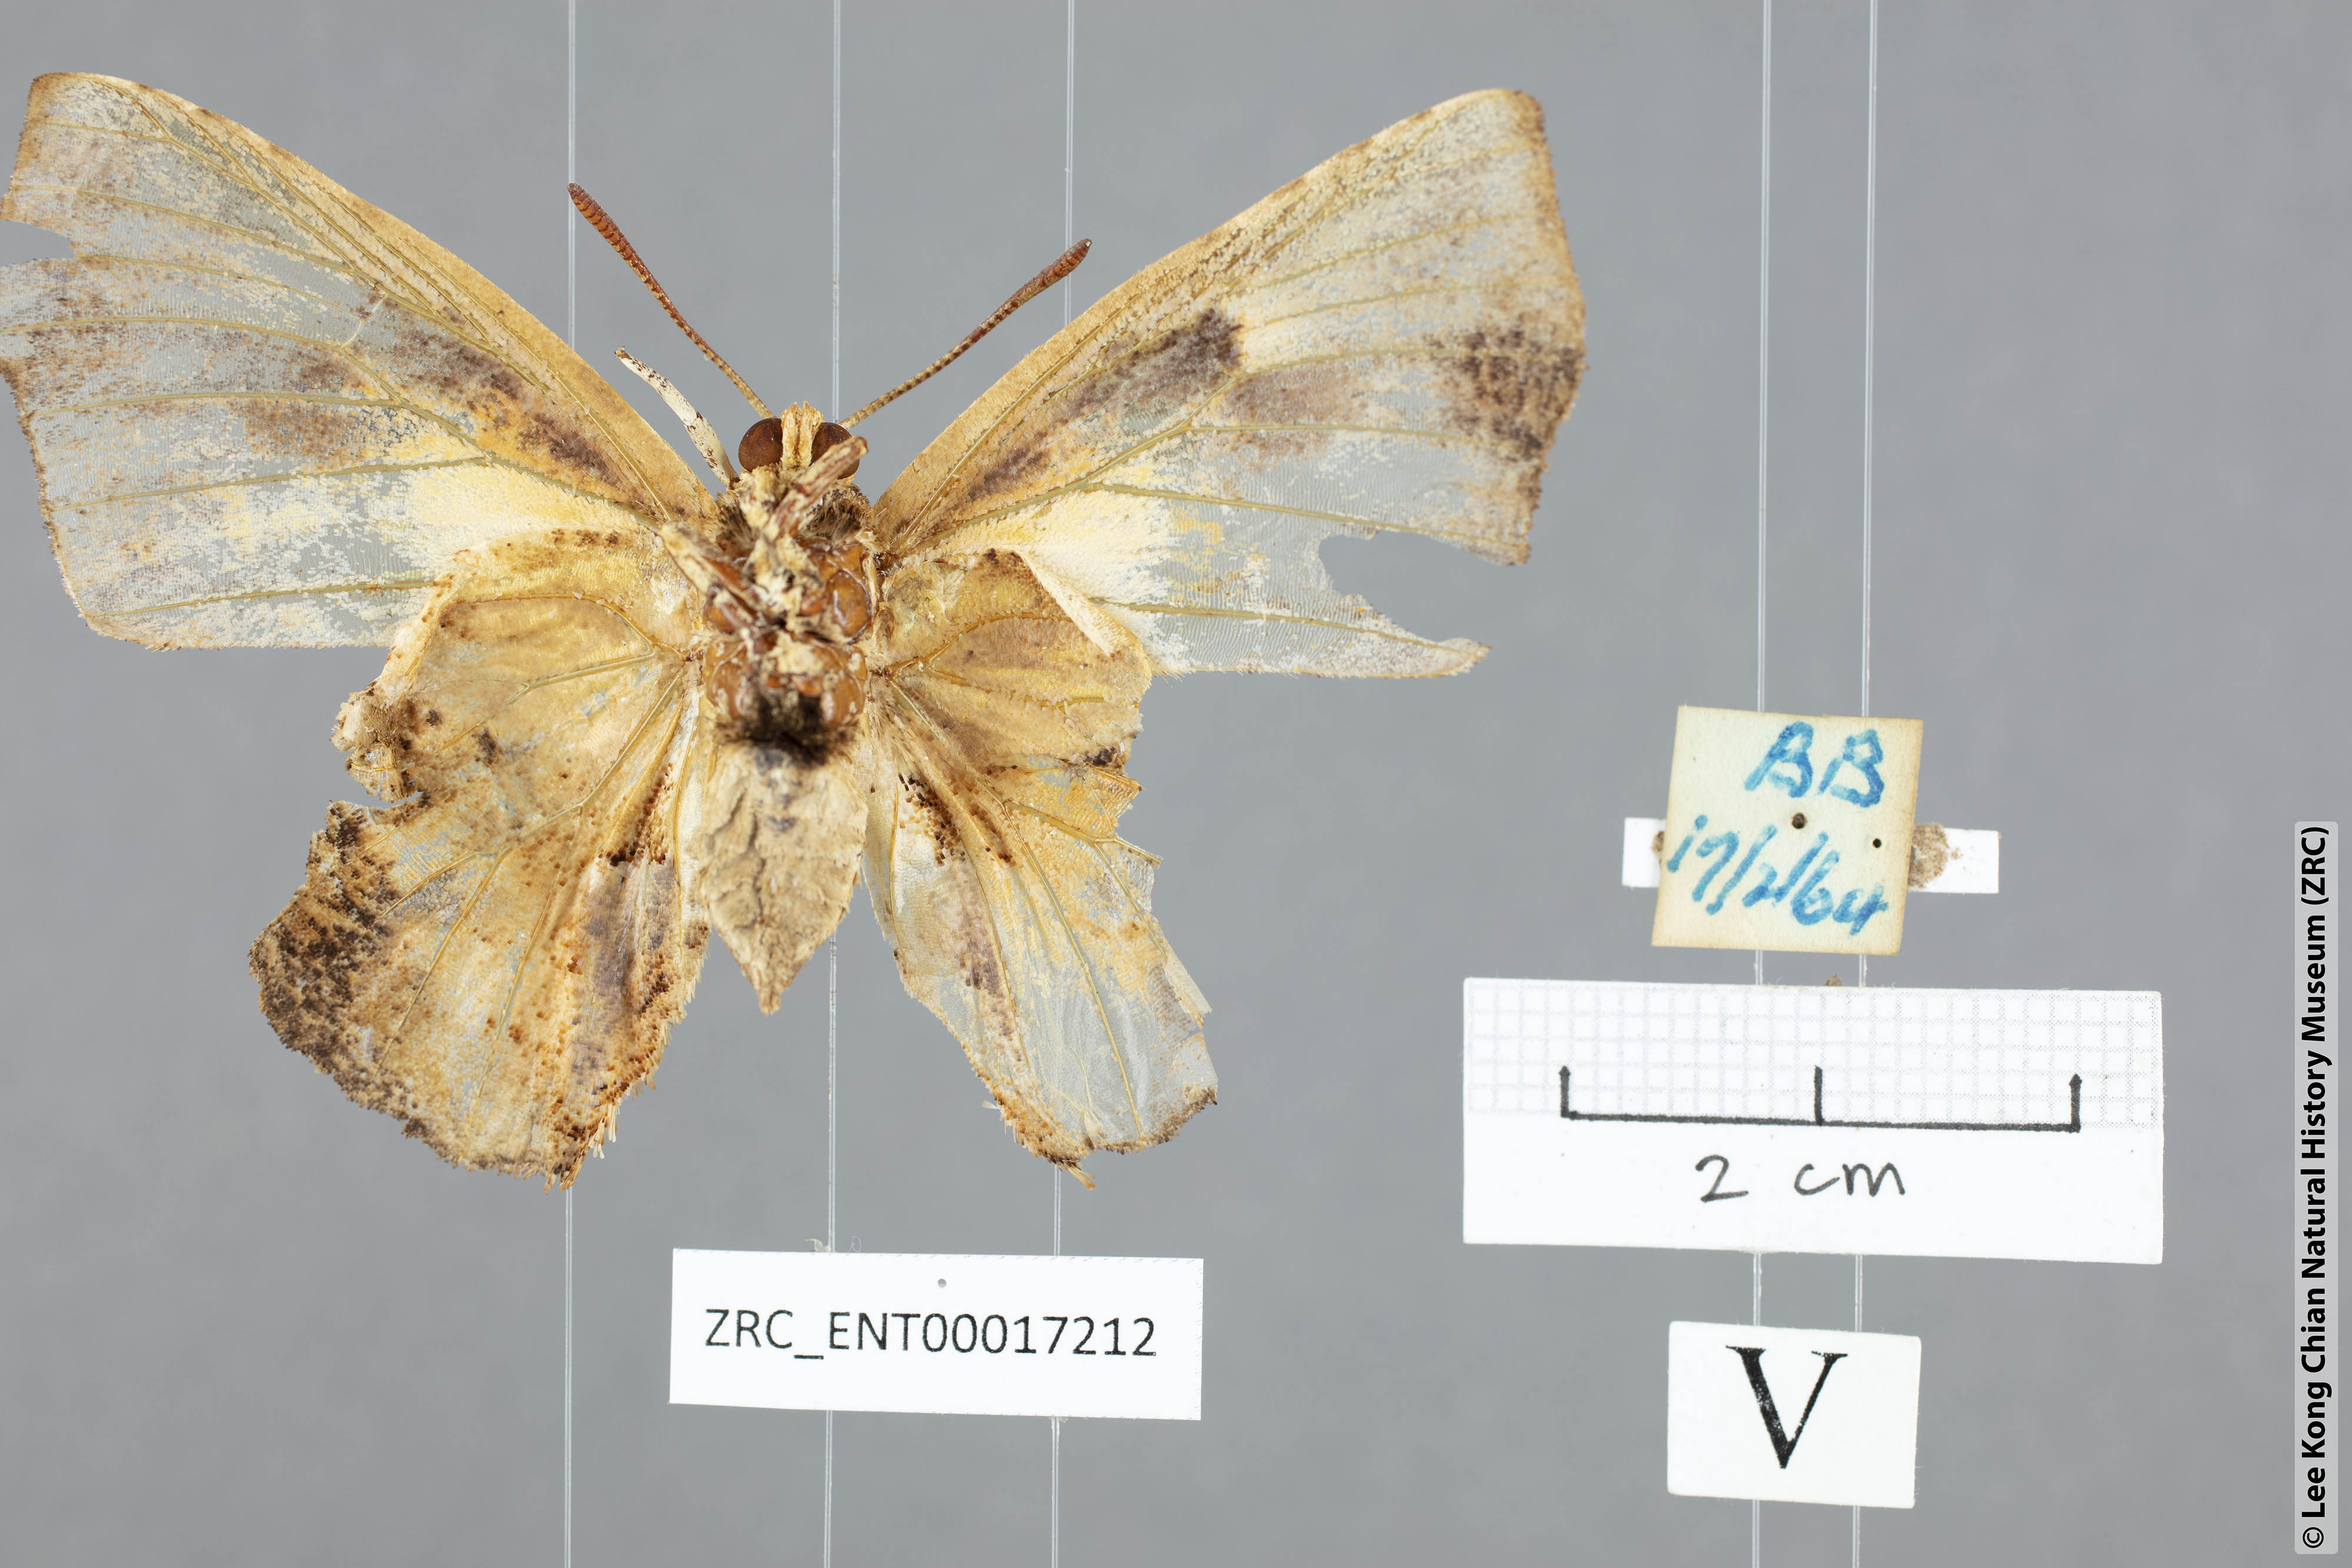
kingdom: Animalia
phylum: Arthropoda
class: Insecta
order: Lepidoptera
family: Lycaenidae
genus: Liphyra
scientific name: Liphyra brassolis
